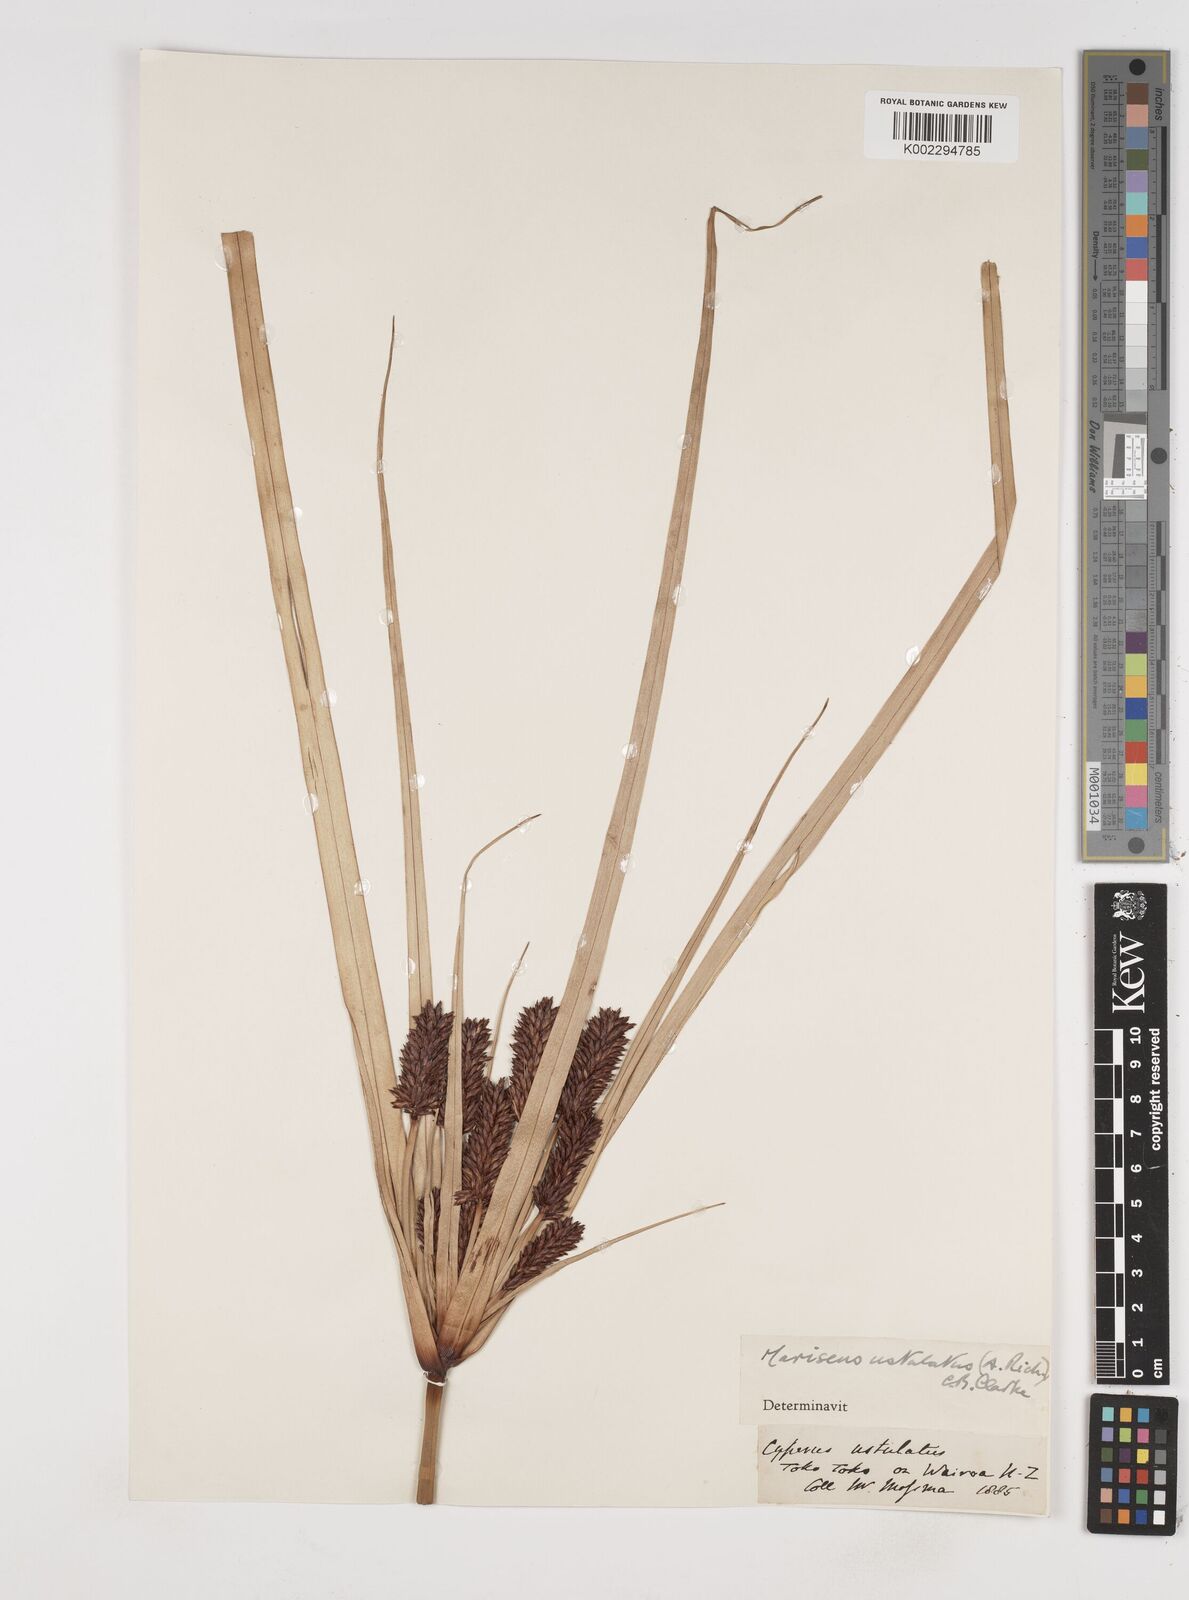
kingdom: Plantae
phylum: Tracheophyta
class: Liliopsida
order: Poales
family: Cyperaceae
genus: Cyperus
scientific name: Cyperus ustulatus
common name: Giant umbrella-sedge
